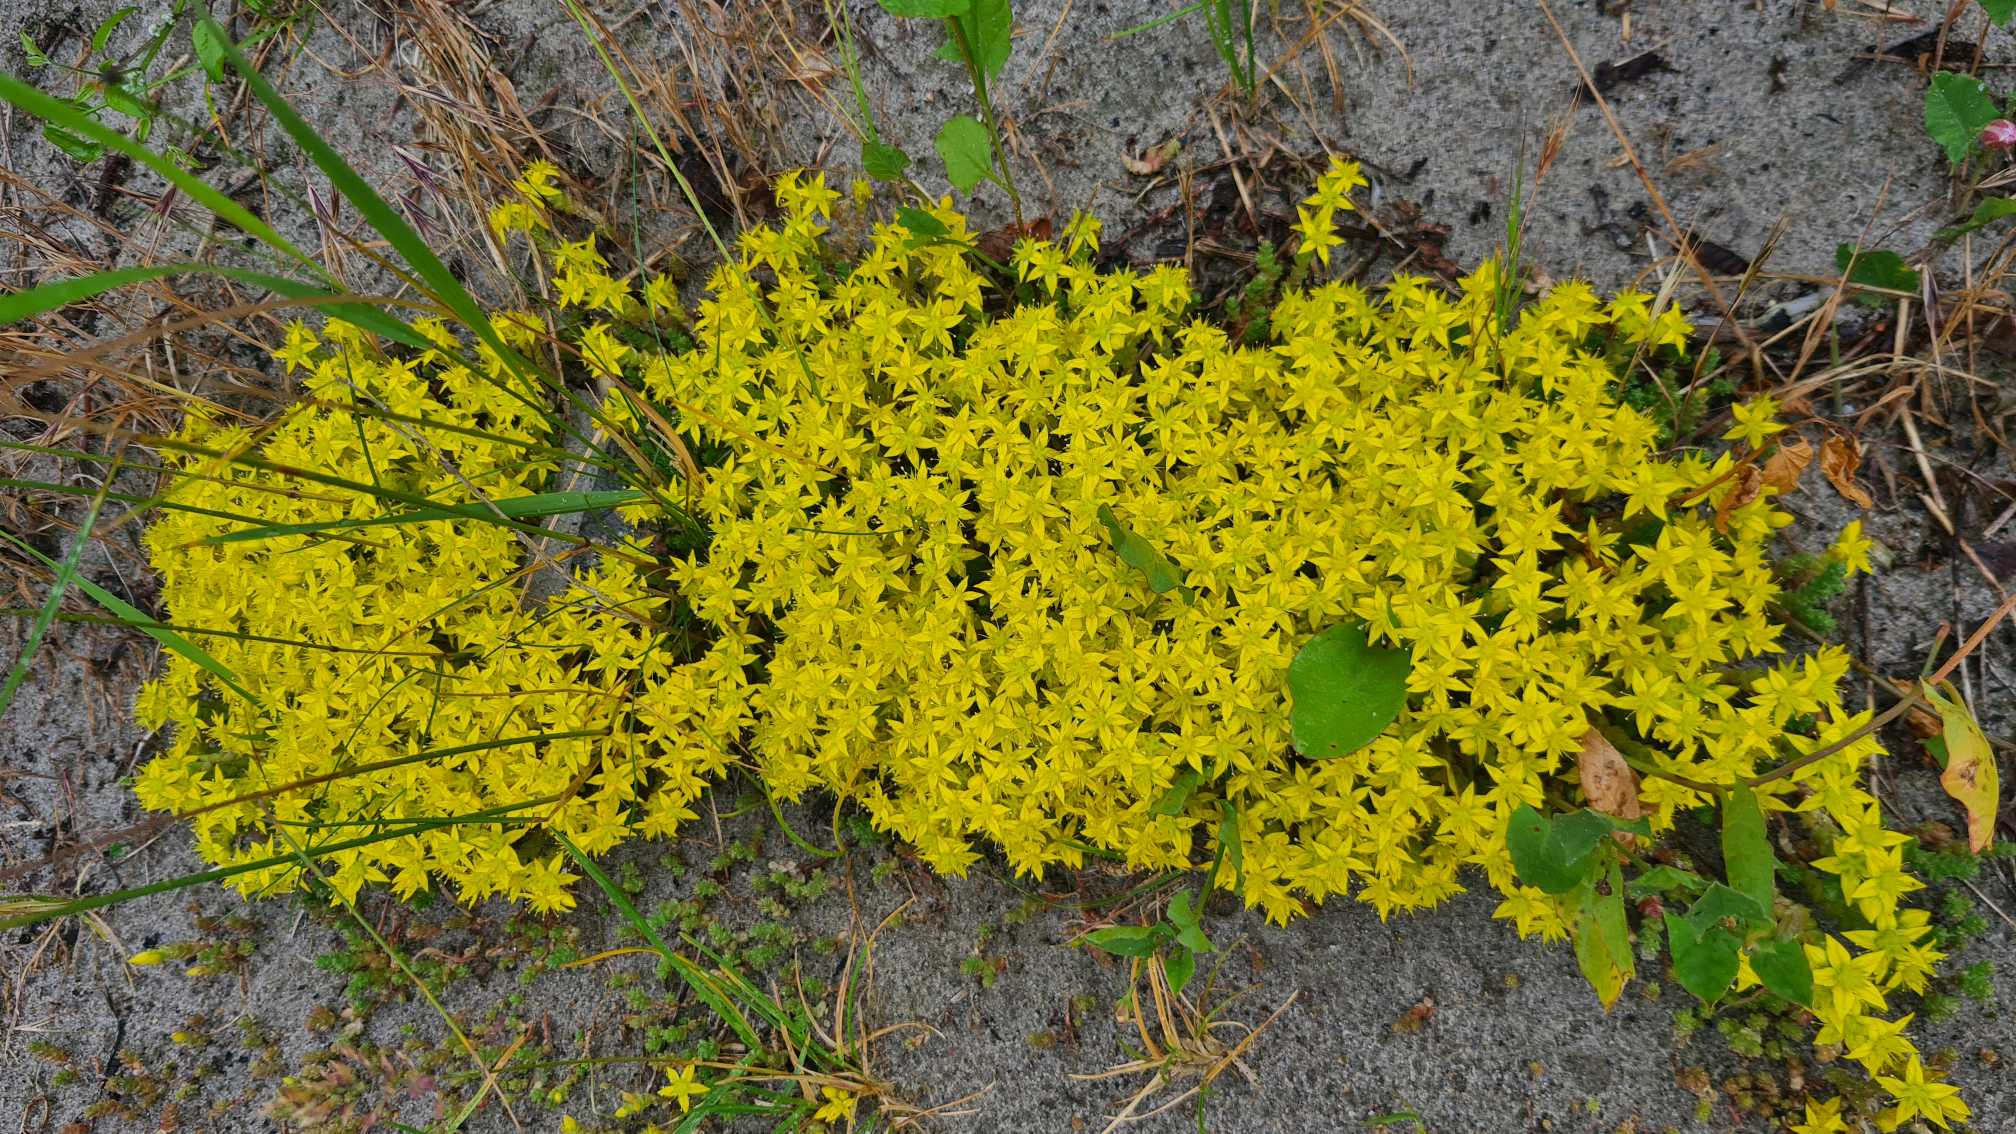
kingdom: Plantae
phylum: Tracheophyta
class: Magnoliopsida
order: Saxifragales
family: Crassulaceae
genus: Sedum
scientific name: Sedum acre
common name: Bidende stenurt
